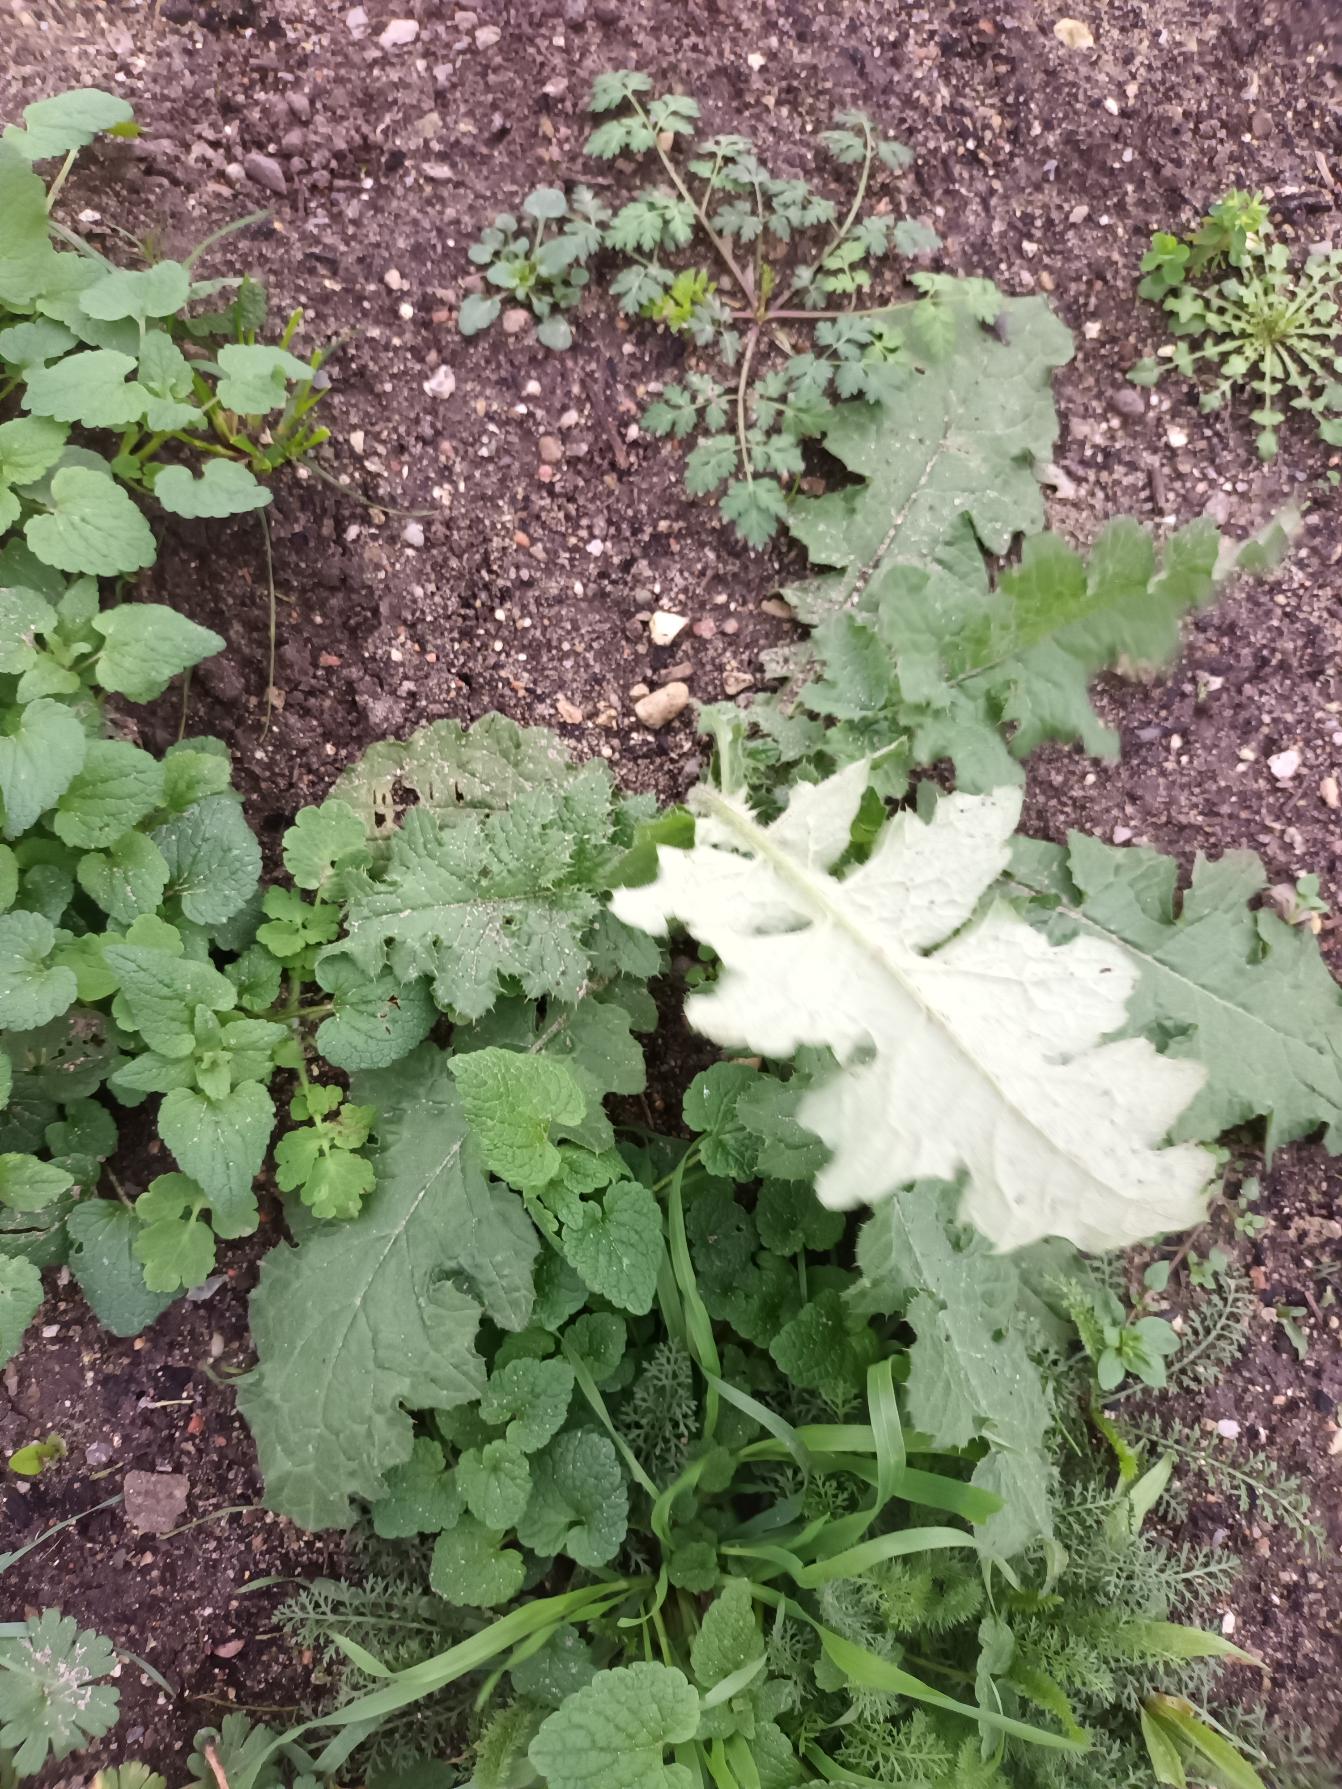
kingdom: Plantae
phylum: Tracheophyta
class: Magnoliopsida
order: Asterales
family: Asteraceae
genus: Carduus
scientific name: Carduus crispus
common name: Kruset tidsel
